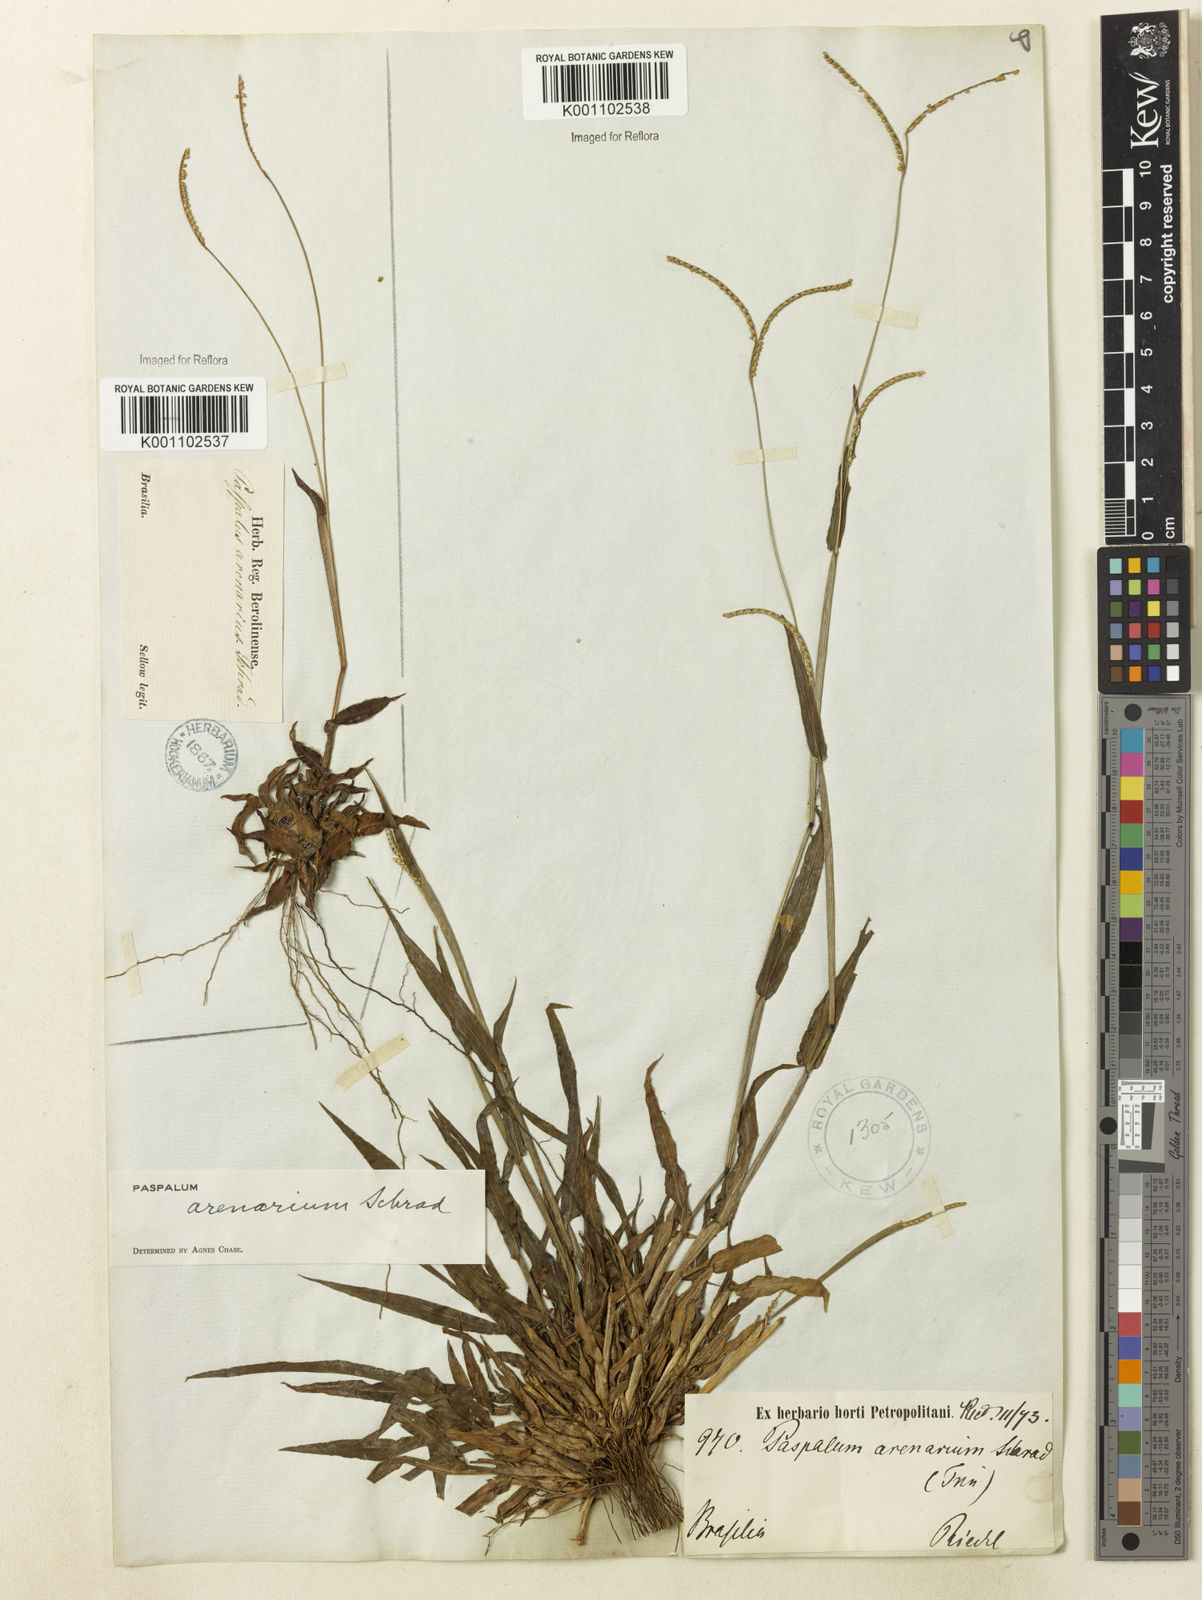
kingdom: Plantae
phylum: Tracheophyta
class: Liliopsida
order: Poales
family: Poaceae
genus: Paspalum
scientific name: Paspalum arenarium
